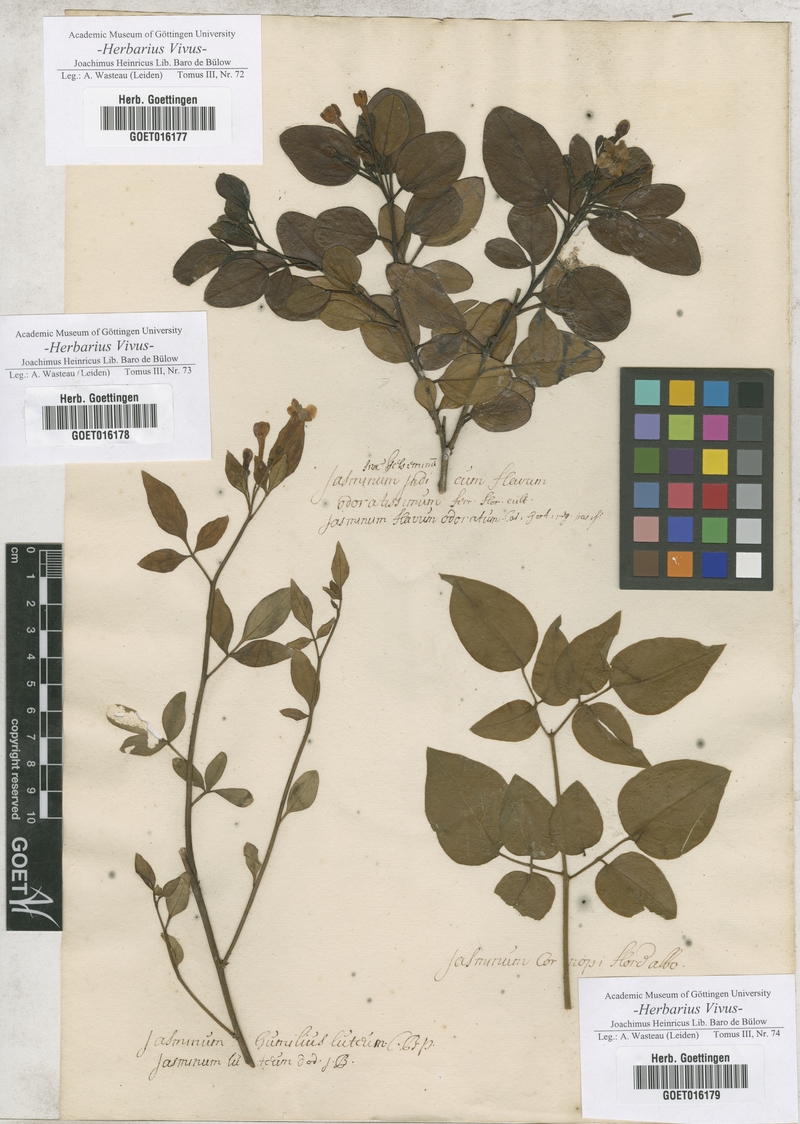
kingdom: Plantae
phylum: Tracheophyta
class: Magnoliopsida
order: Lamiales
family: Oleaceae
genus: Jasminum
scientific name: Jasminum
